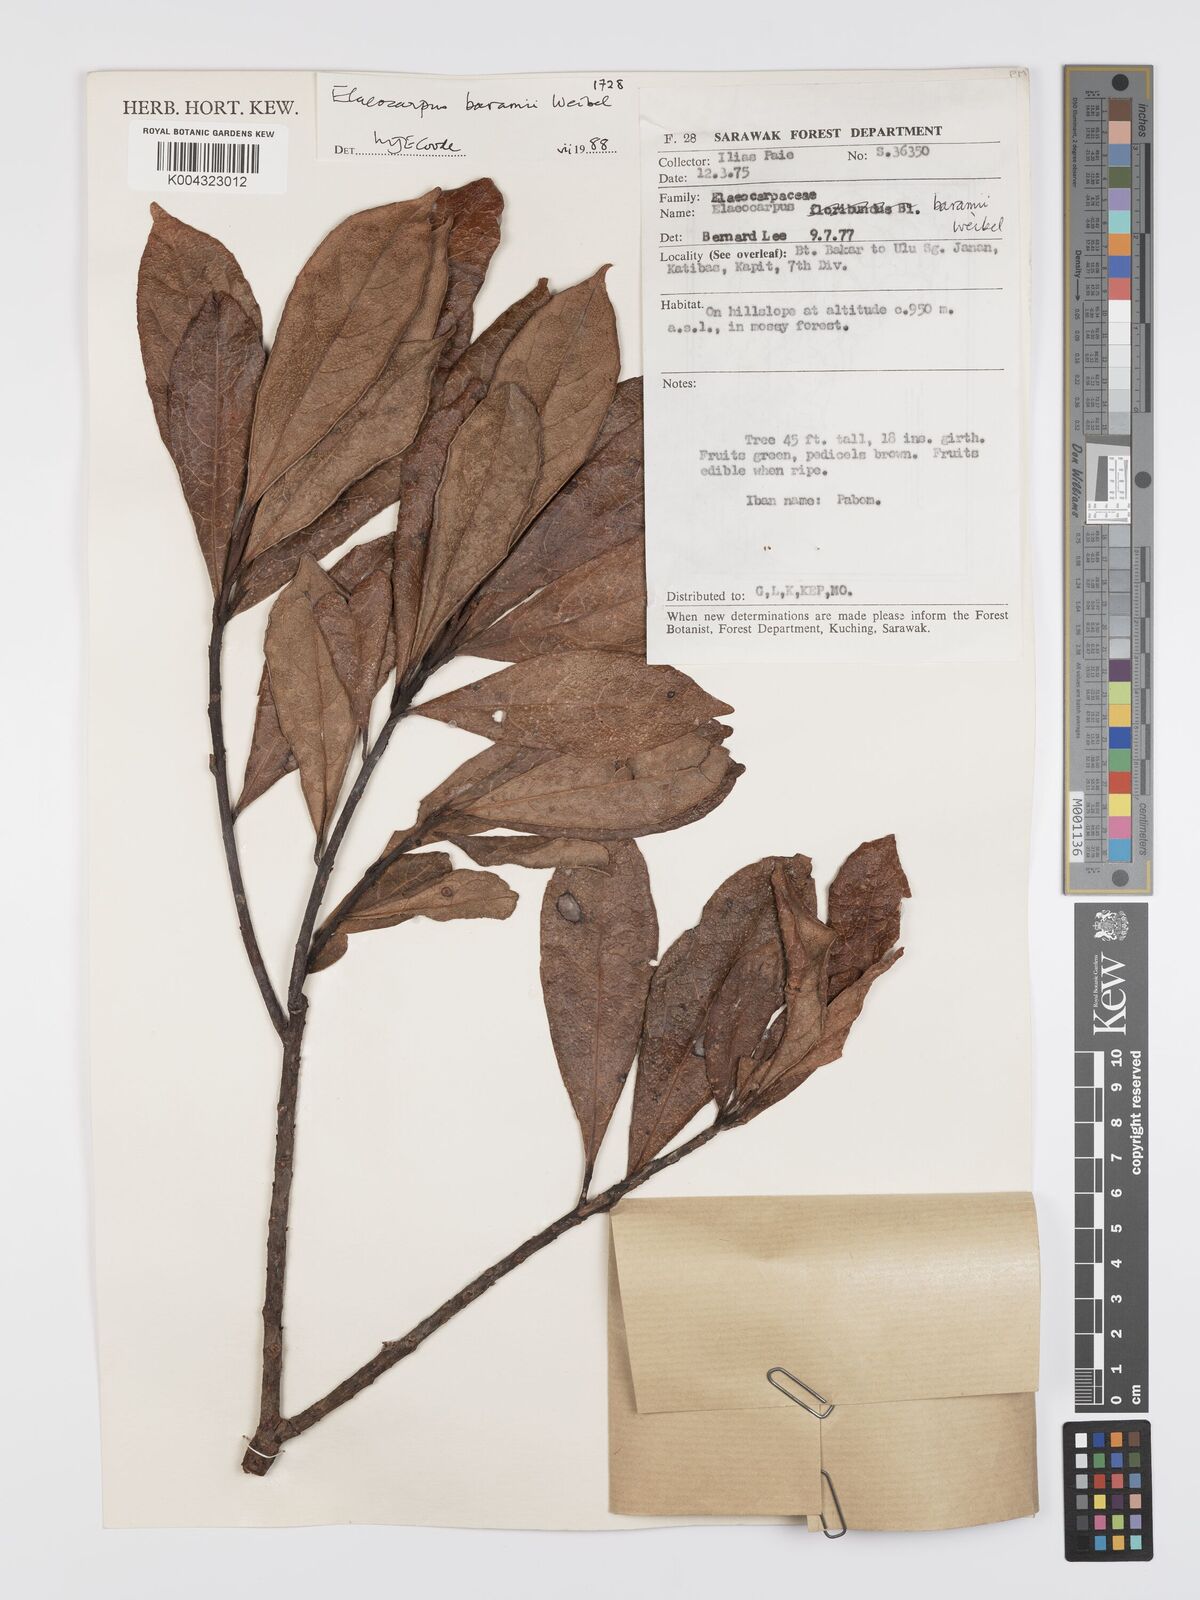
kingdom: Plantae
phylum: Tracheophyta
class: Magnoliopsida
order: Oxalidales
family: Elaeocarpaceae
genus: Elaeocarpus
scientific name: Elaeocarpus baramii
